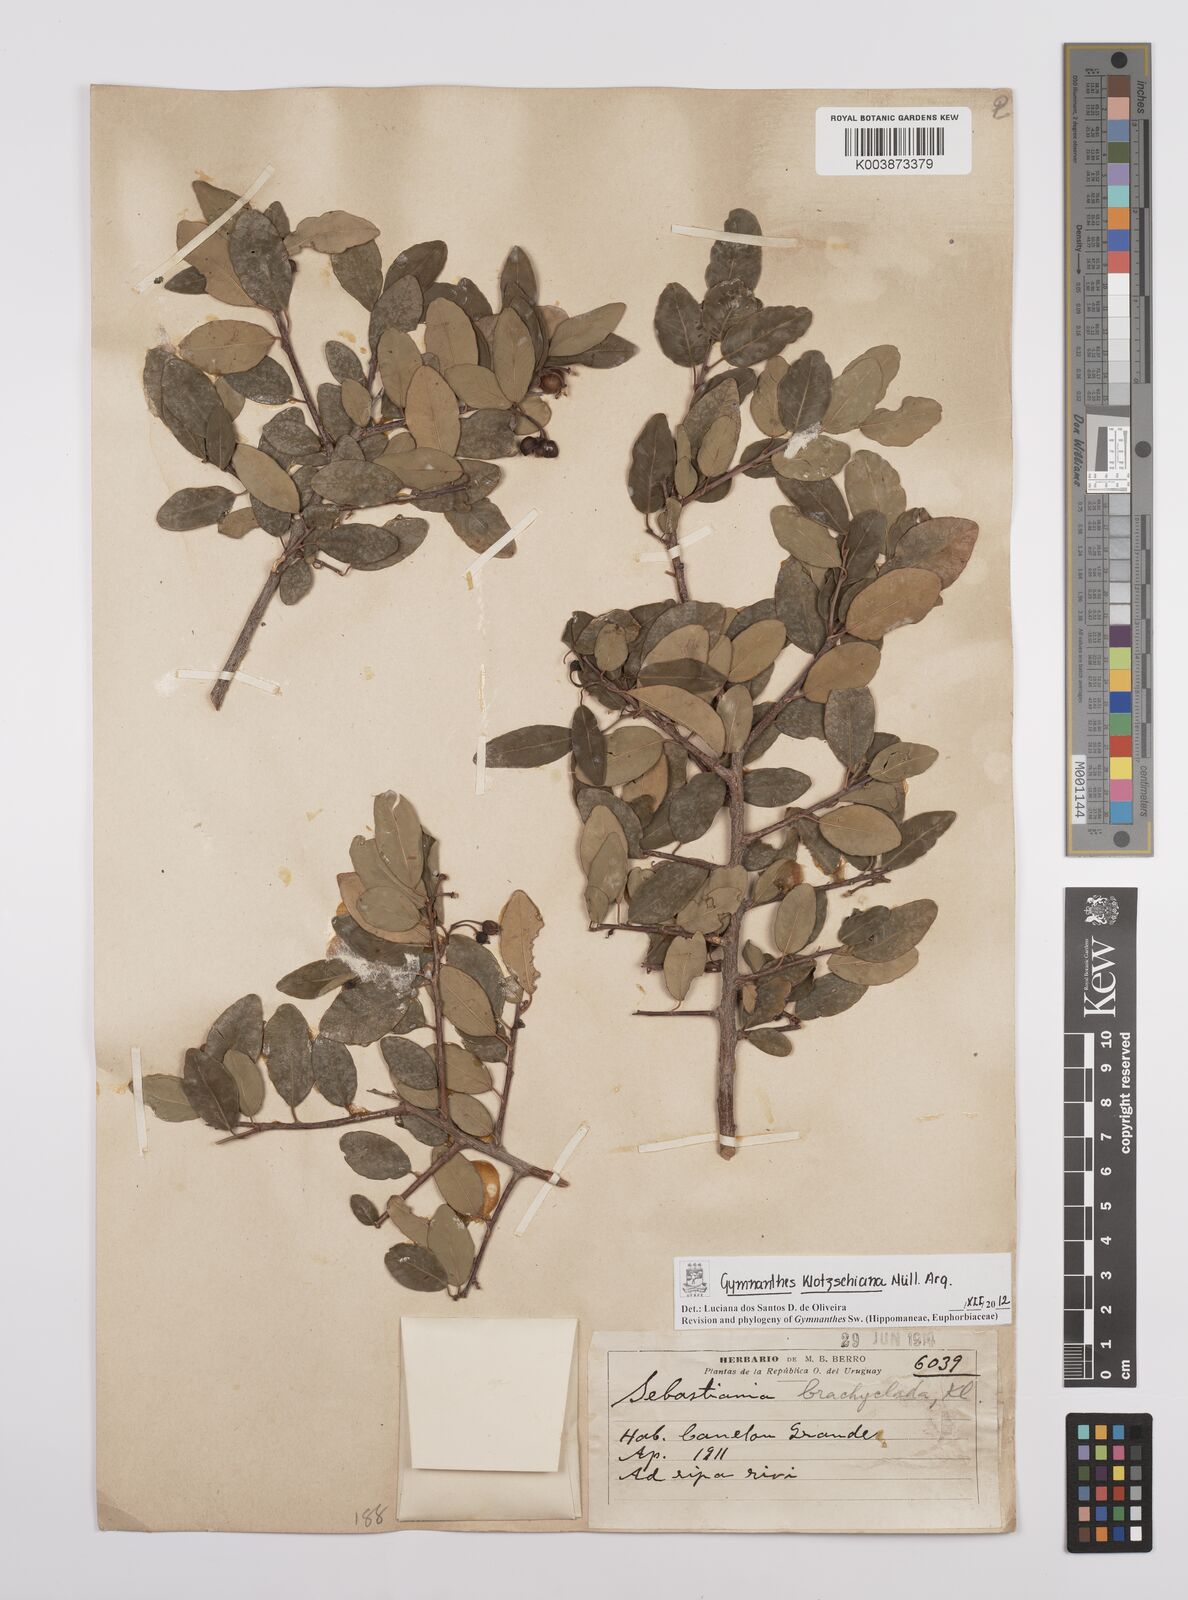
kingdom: Plantae
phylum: Tracheophyta
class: Magnoliopsida
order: Malpighiales
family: Euphorbiaceae
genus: Sebastiania
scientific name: Sebastiania klotzschiana
